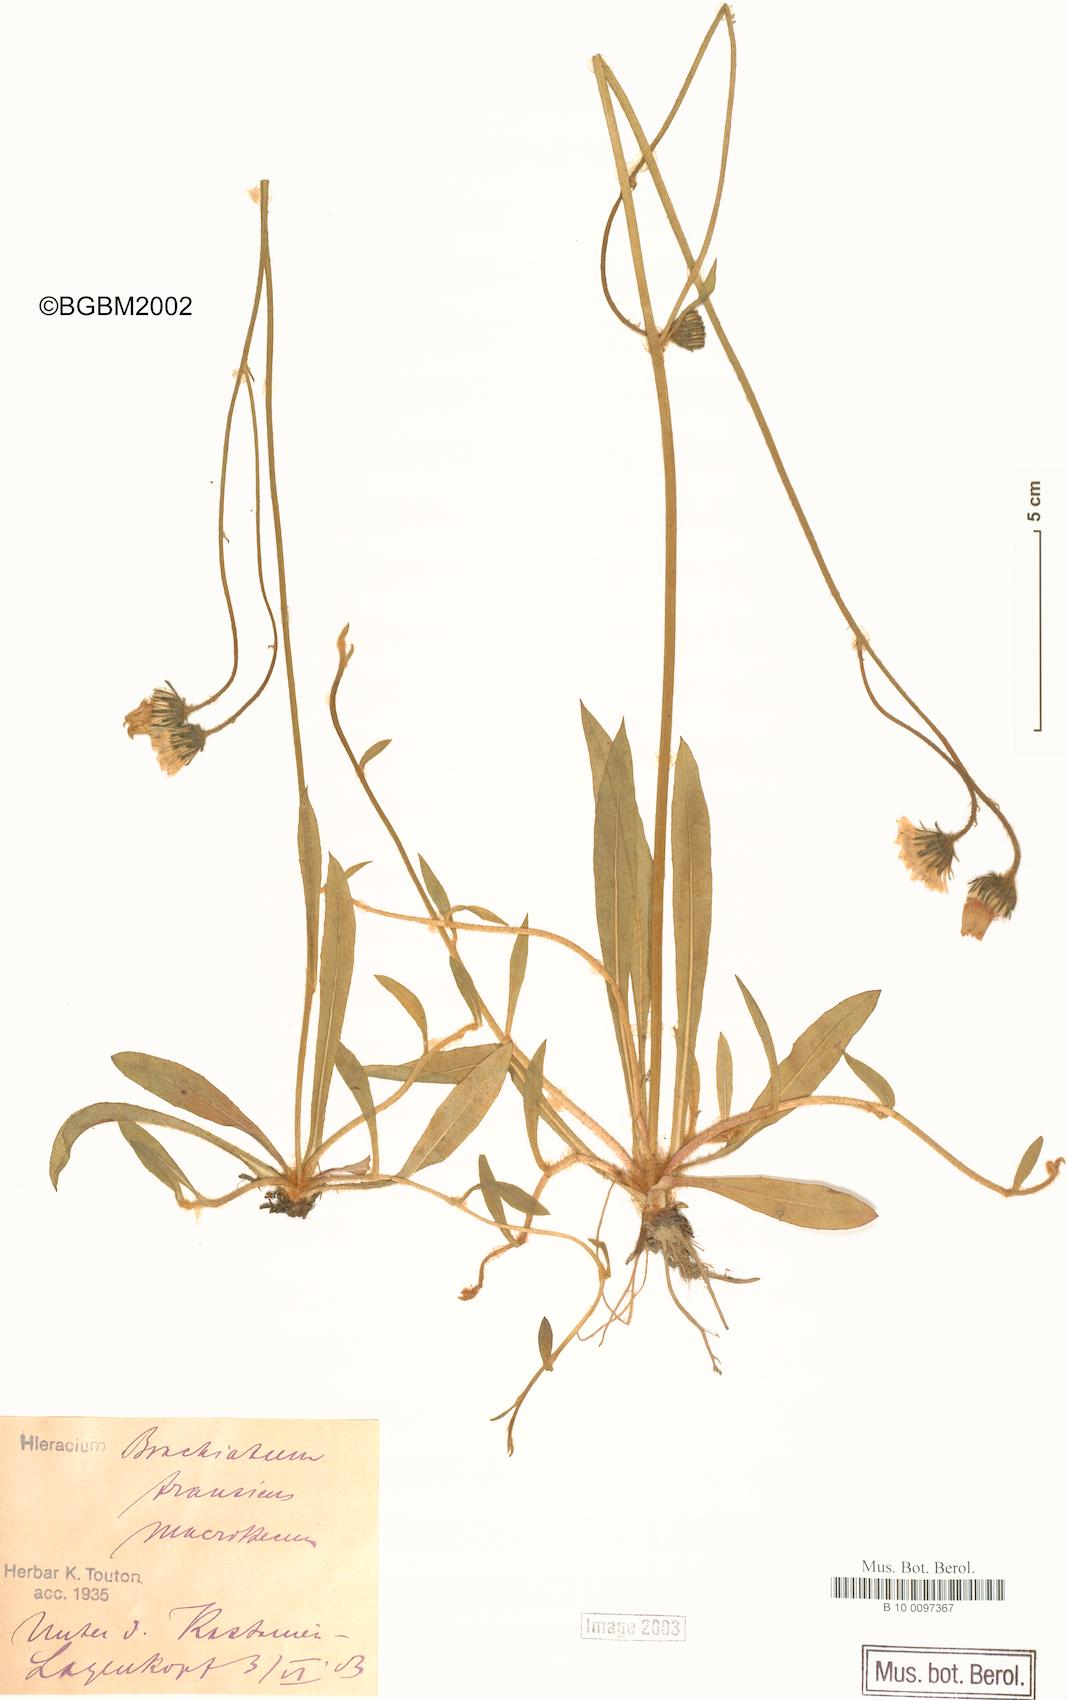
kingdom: Plantae
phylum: Tracheophyta
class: Magnoliopsida
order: Asterales
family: Asteraceae
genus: Pilosella
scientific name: Pilosella acutifolia
